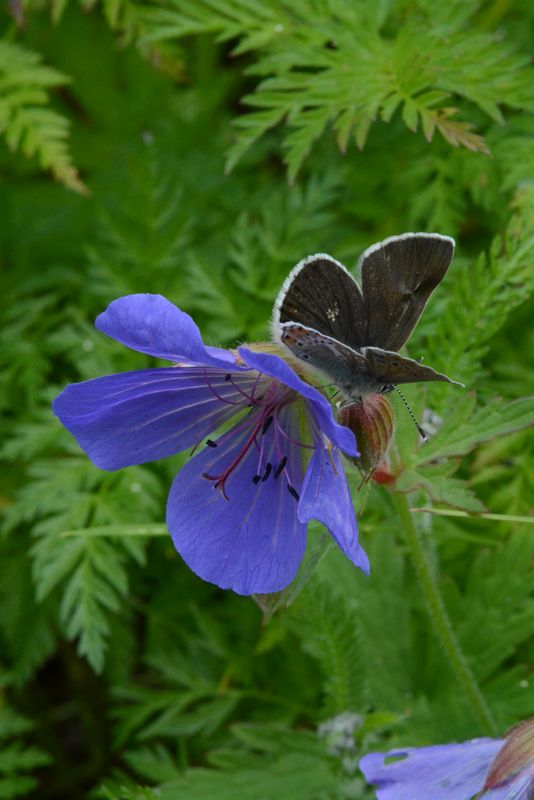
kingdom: Plantae
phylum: Tracheophyta
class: Magnoliopsida
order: Geraniales
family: Geraniaceae
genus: Geranium
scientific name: Geranium pratense
